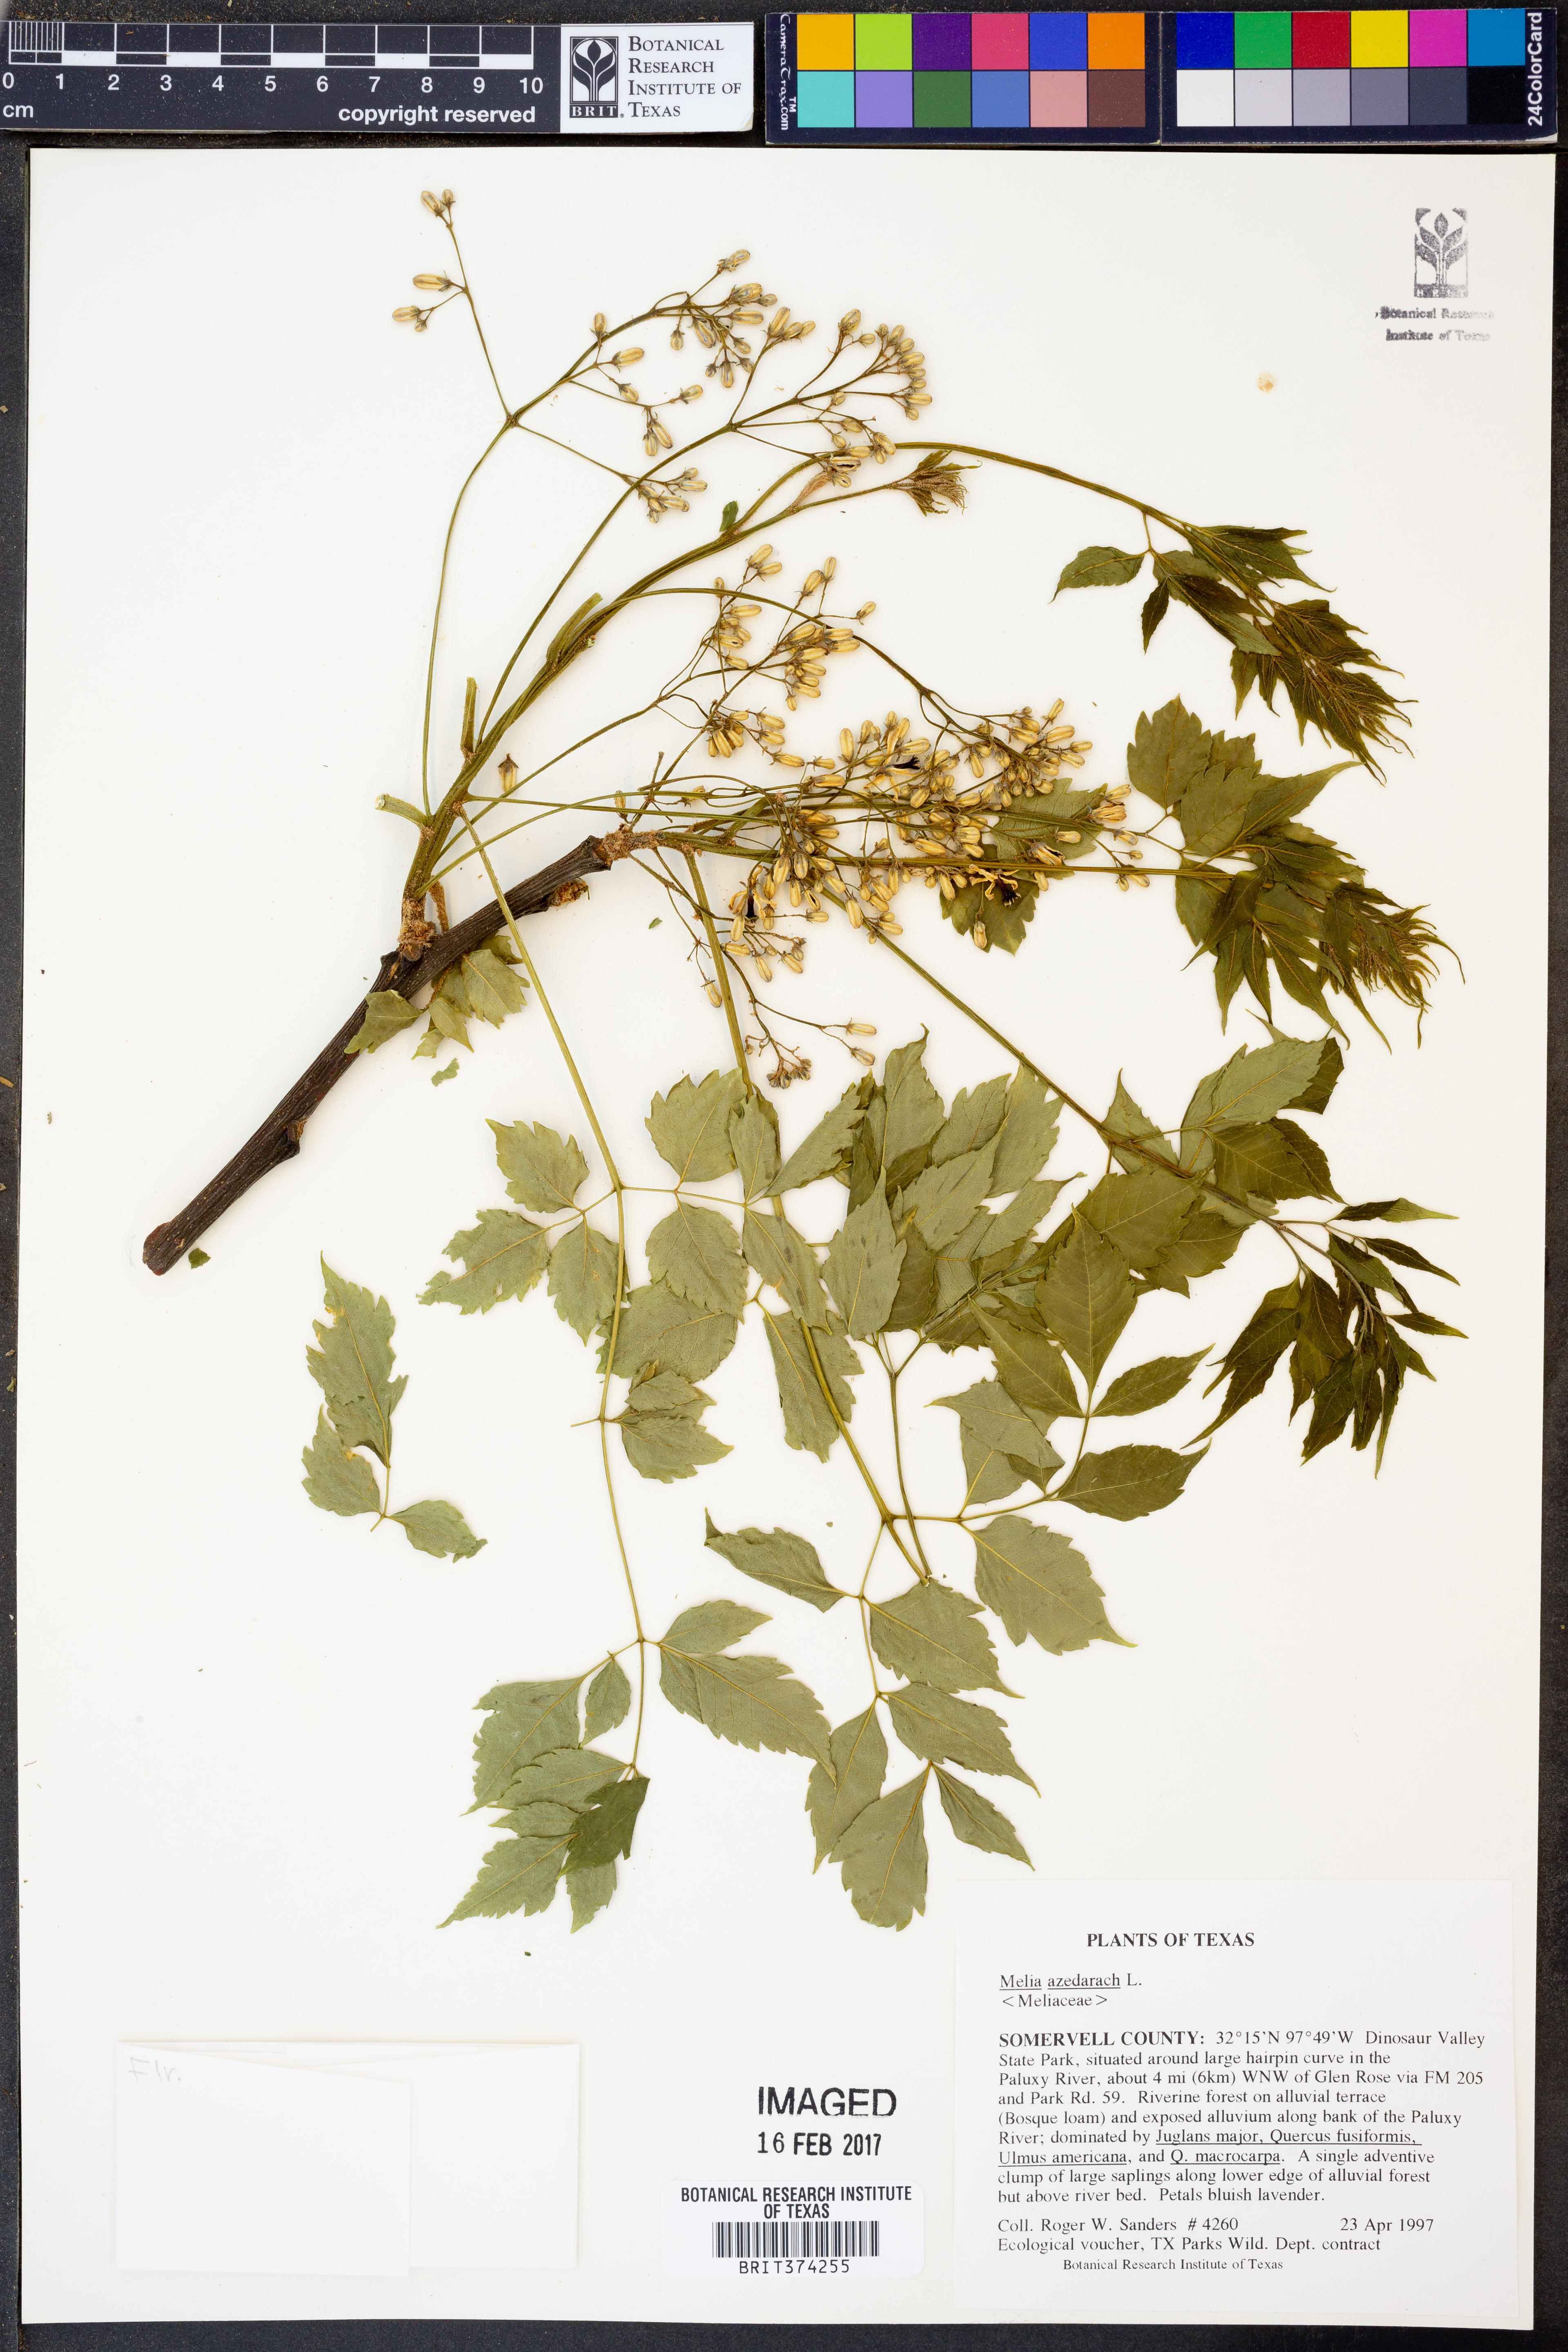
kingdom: Plantae
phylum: Tracheophyta
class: Magnoliopsida
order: Sapindales
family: Meliaceae
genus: Azadirachta
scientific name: Azadirachta indica
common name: Neem
